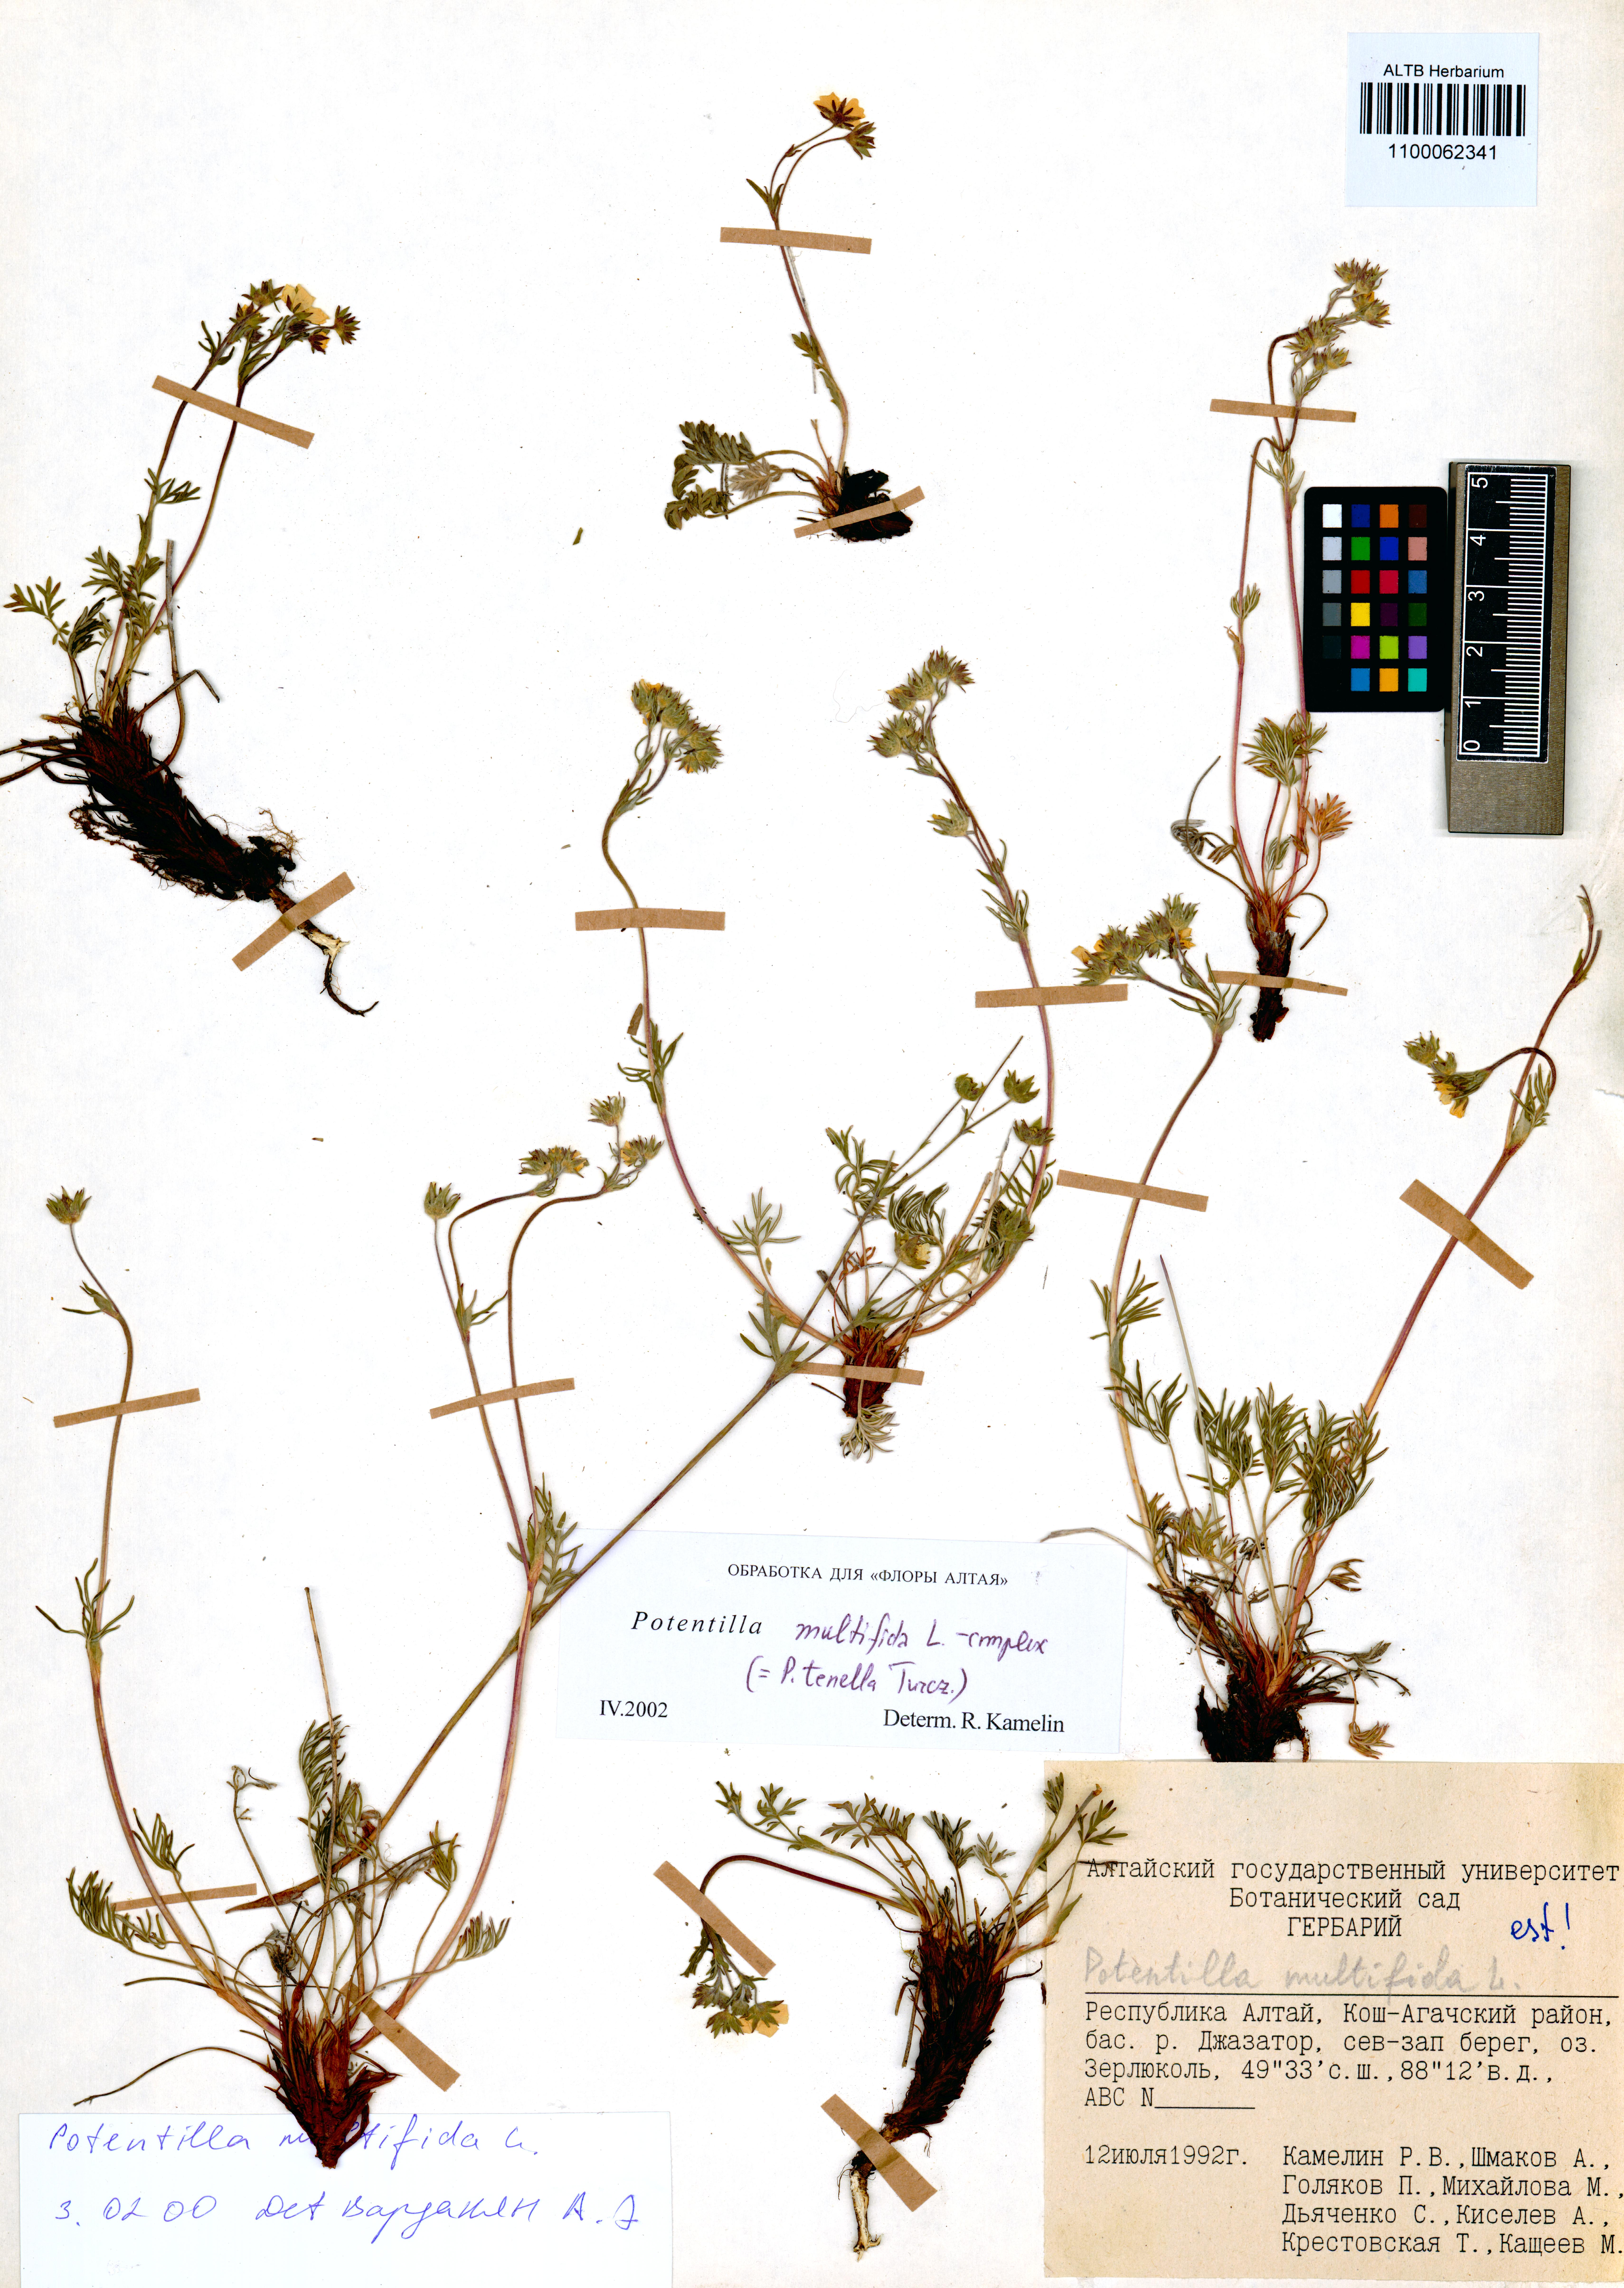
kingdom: Plantae
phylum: Tracheophyta
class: Magnoliopsida
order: Rosales
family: Rosaceae
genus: Potentilla
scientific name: Potentilla multifida
